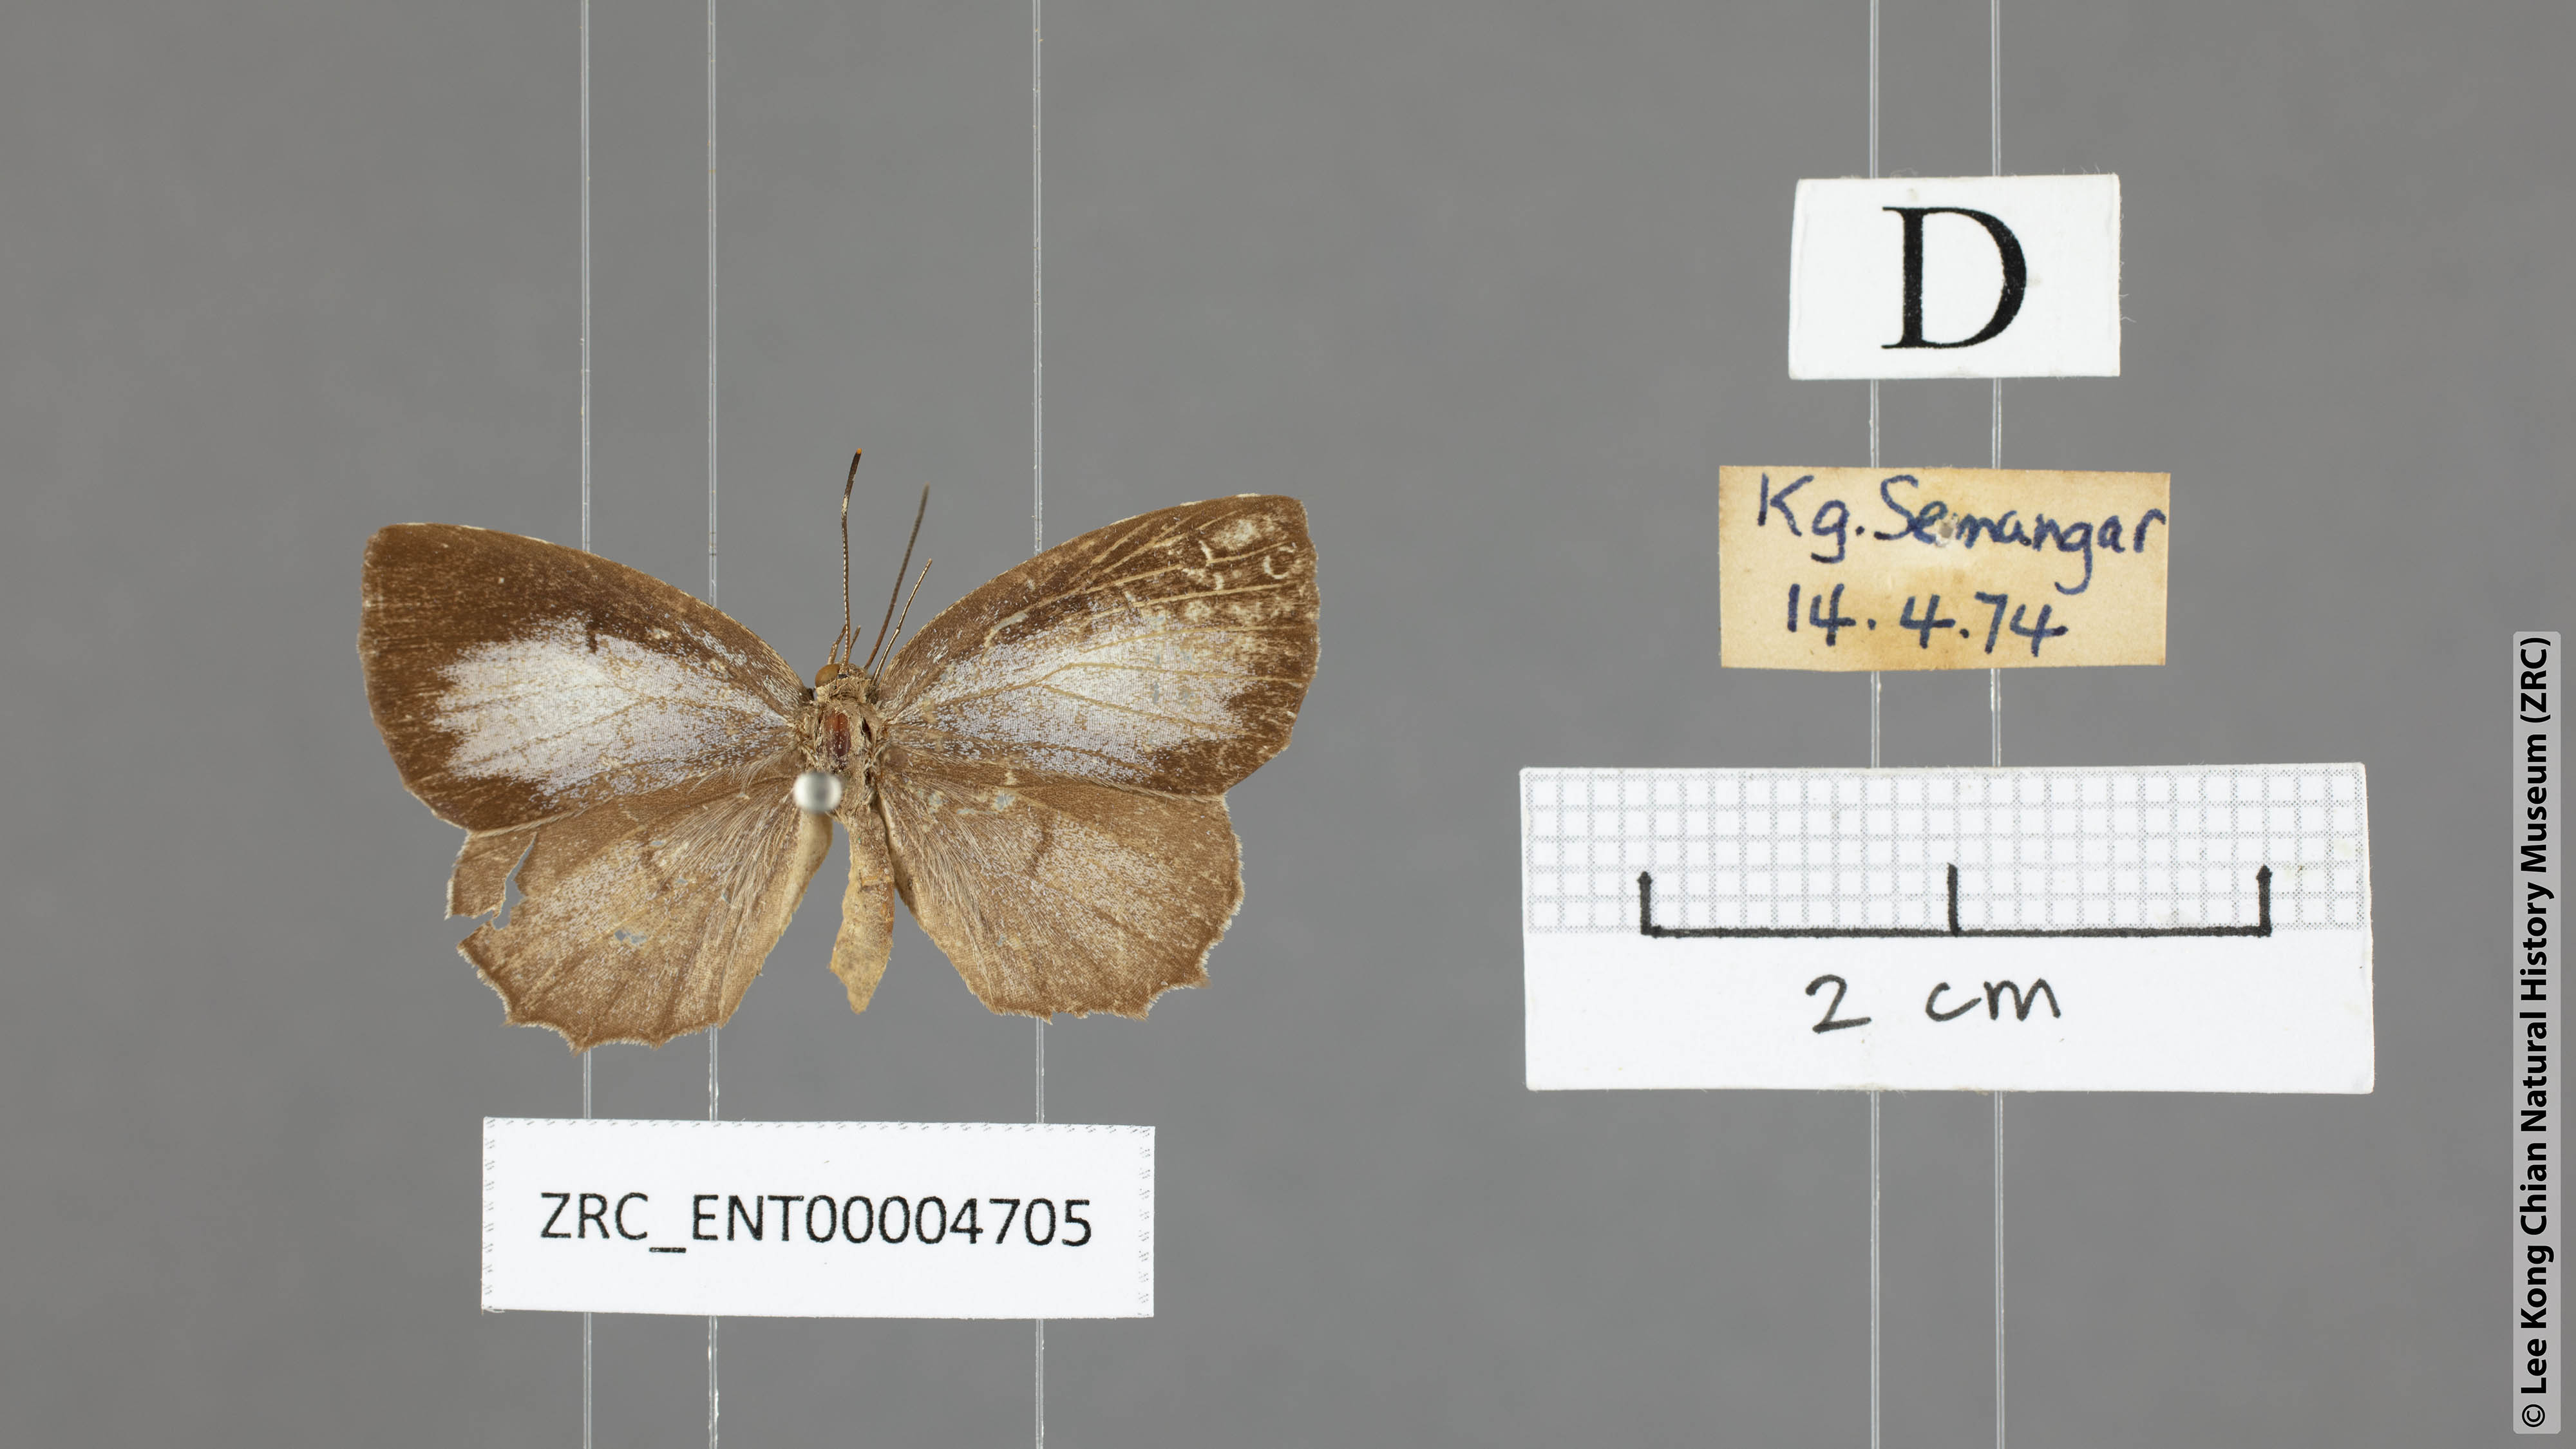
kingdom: Animalia
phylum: Arthropoda
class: Insecta
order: Lepidoptera
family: Lycaenidae
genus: Allotinus
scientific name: Allotinus subviolaceus
